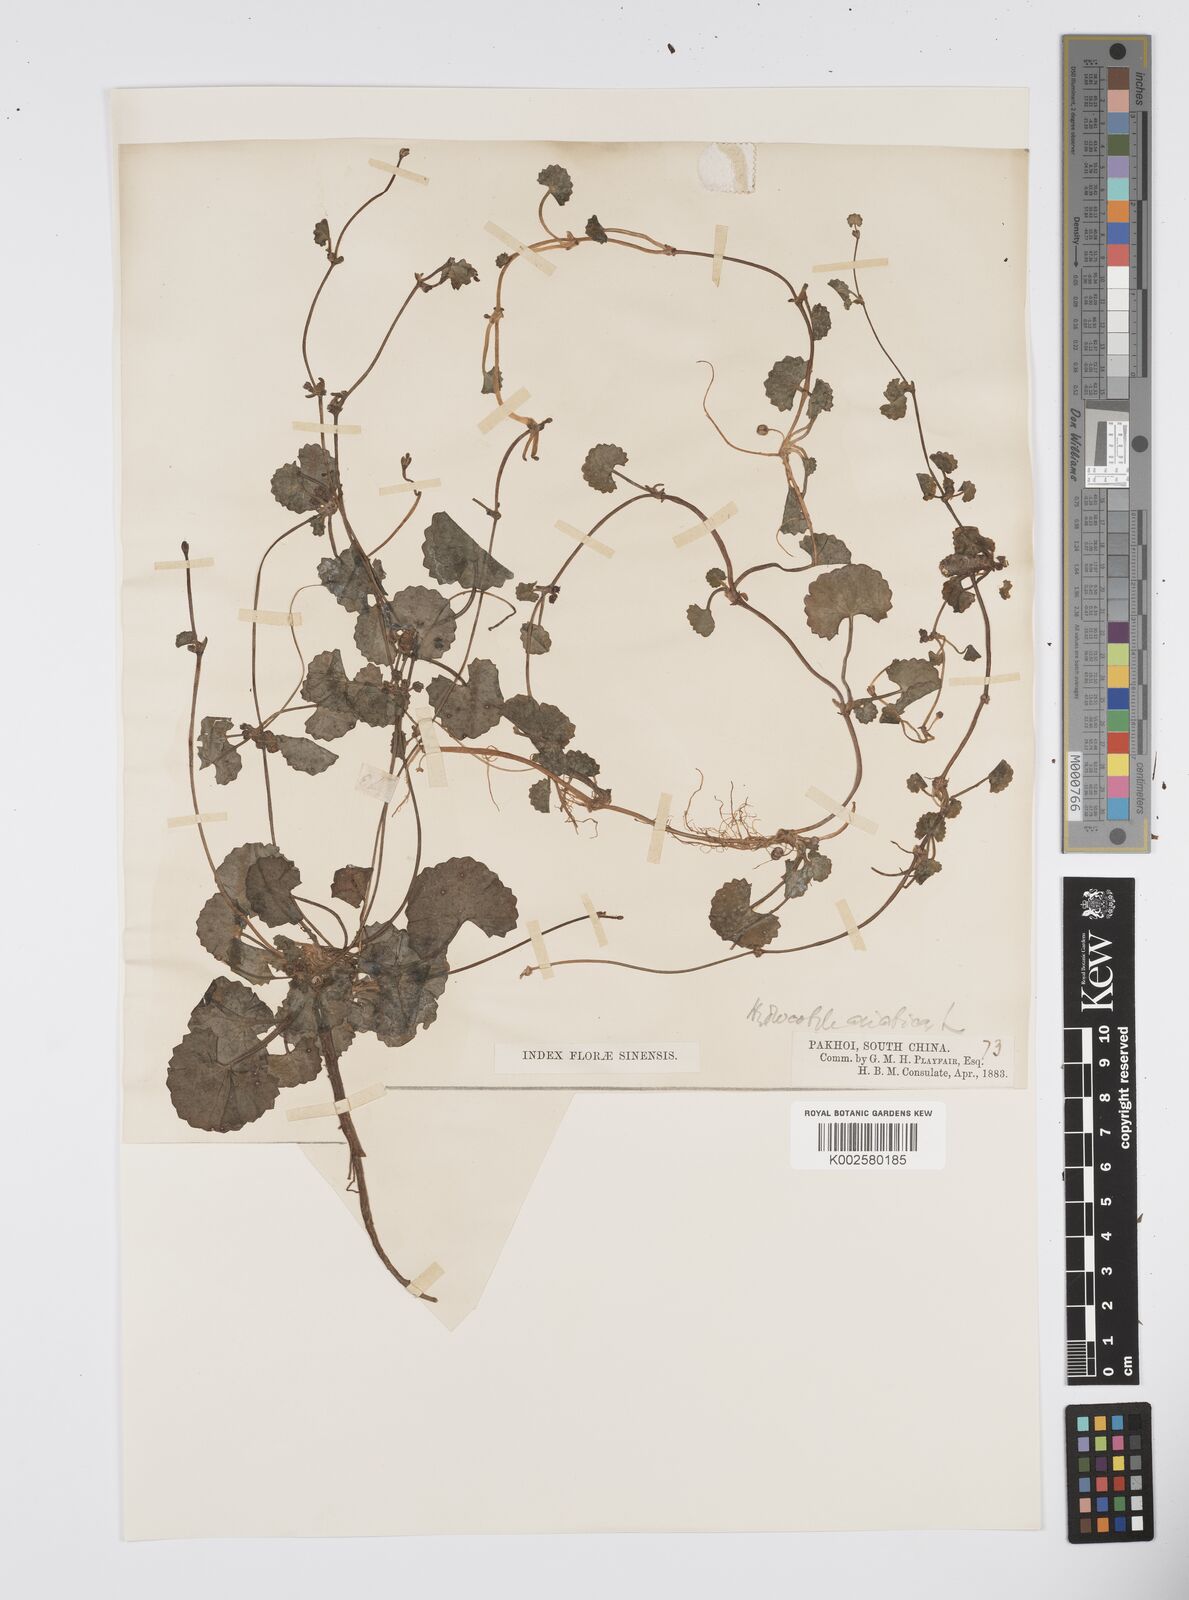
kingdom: Plantae
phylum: Tracheophyta
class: Magnoliopsida
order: Apiales
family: Apiaceae
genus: Centella
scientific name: Centella
